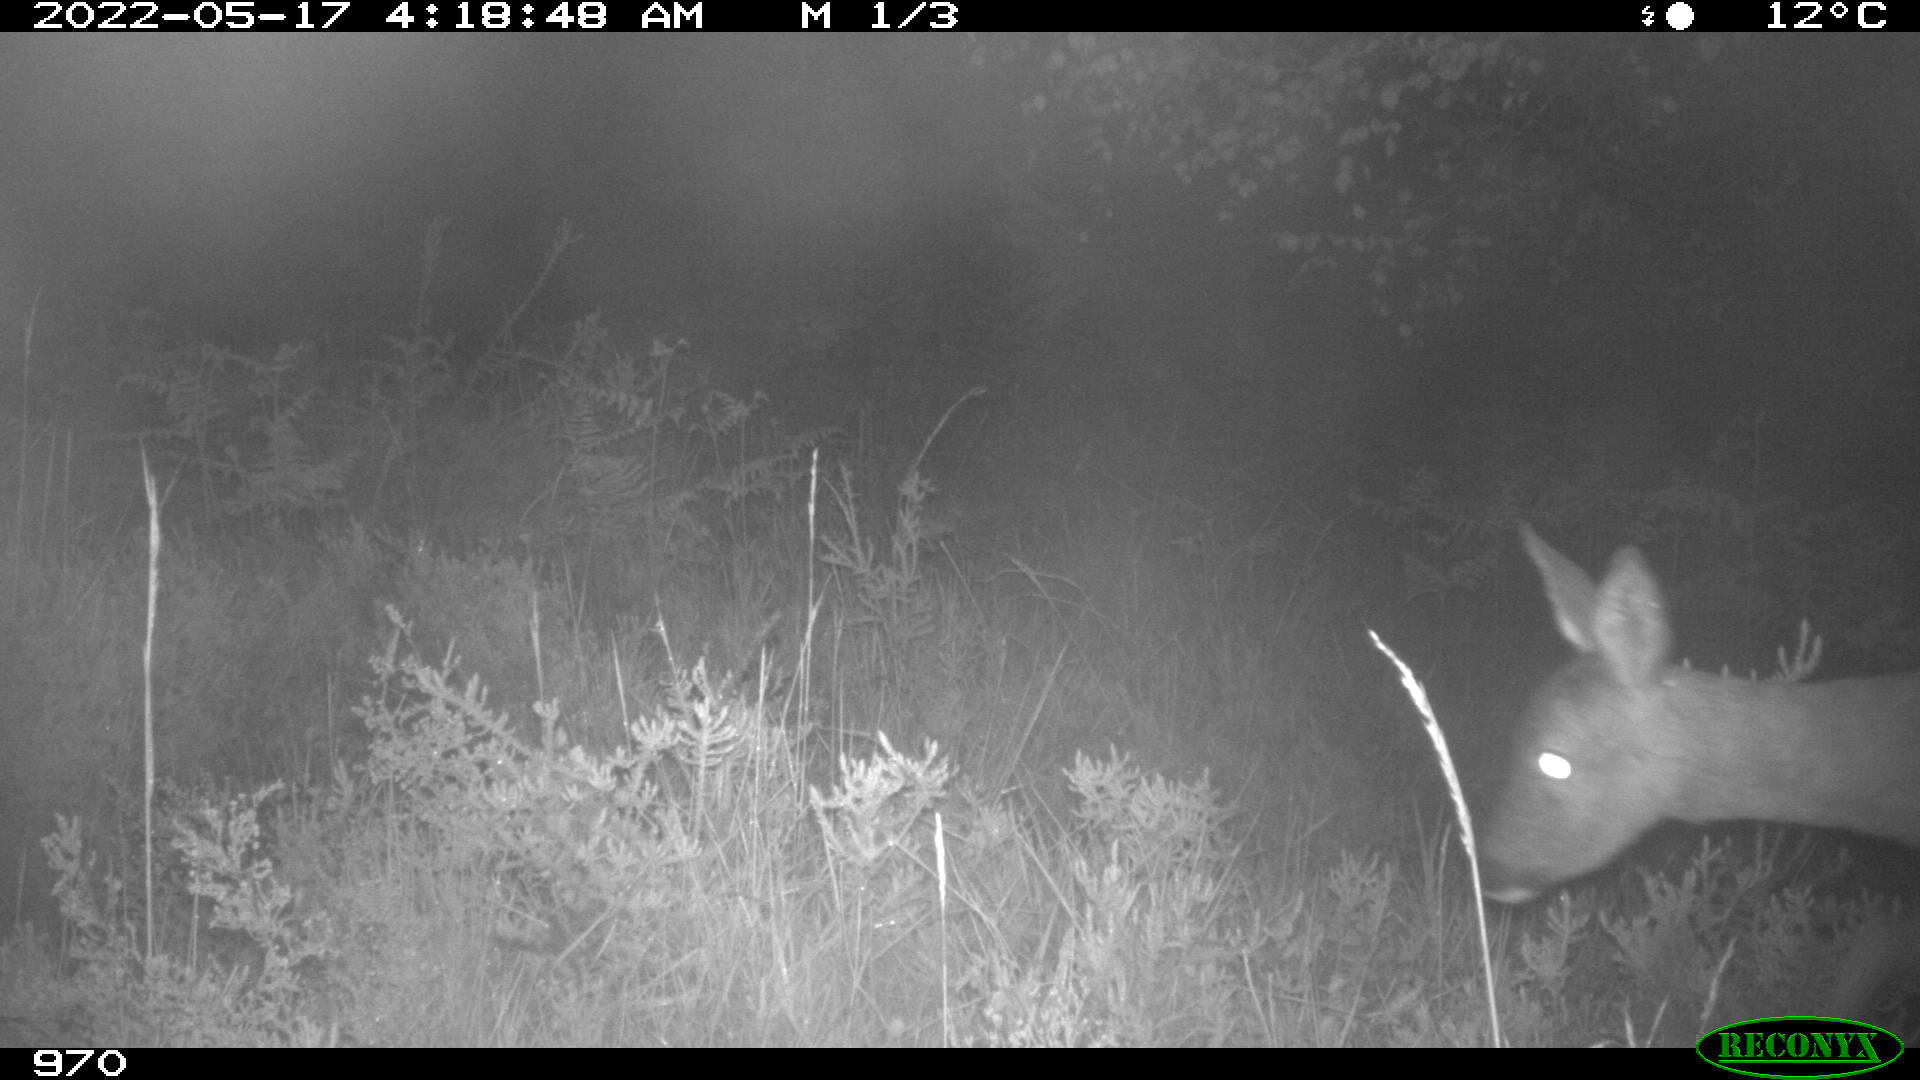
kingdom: Animalia
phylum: Chordata
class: Mammalia
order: Artiodactyla
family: Cervidae
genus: Capreolus
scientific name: Capreolus capreolus
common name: Western roe deer
